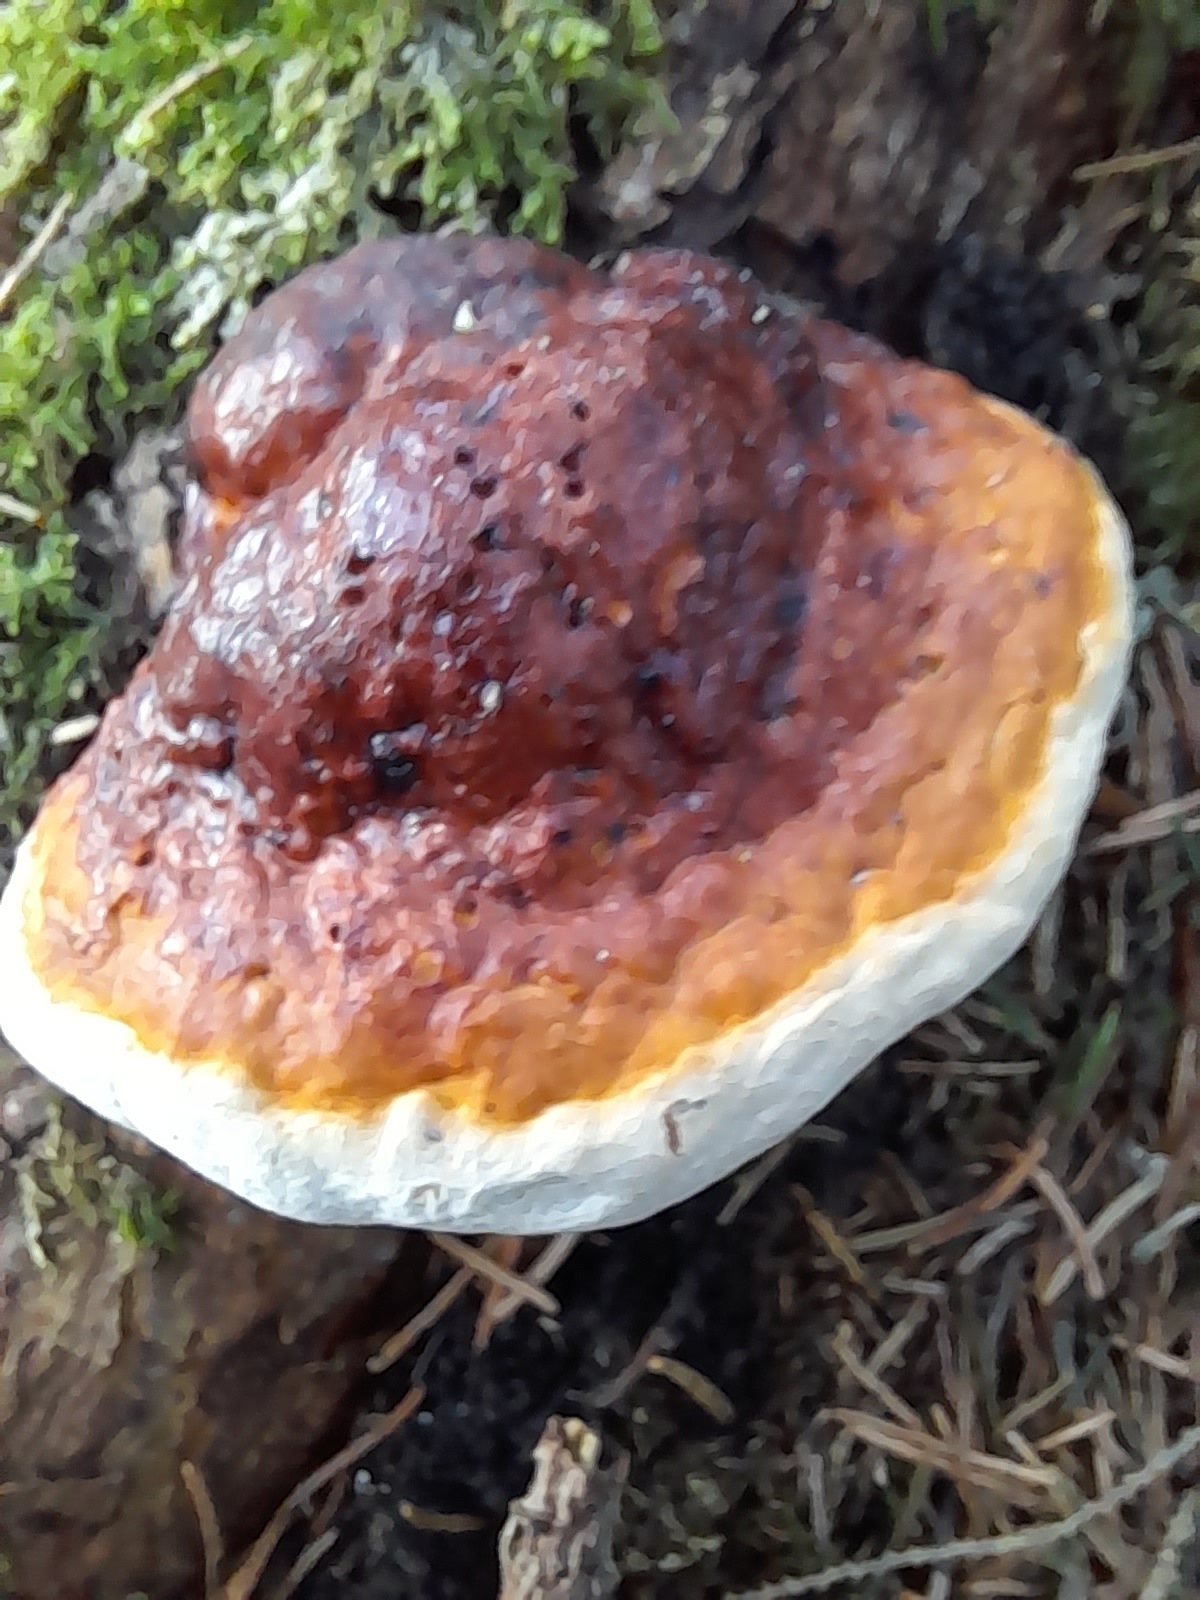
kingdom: Fungi
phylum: Basidiomycota
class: Agaricomycetes
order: Polyporales
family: Fomitopsidaceae
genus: Fomitopsis
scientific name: Fomitopsis pinicola
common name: randbæltet hovporesvamp
